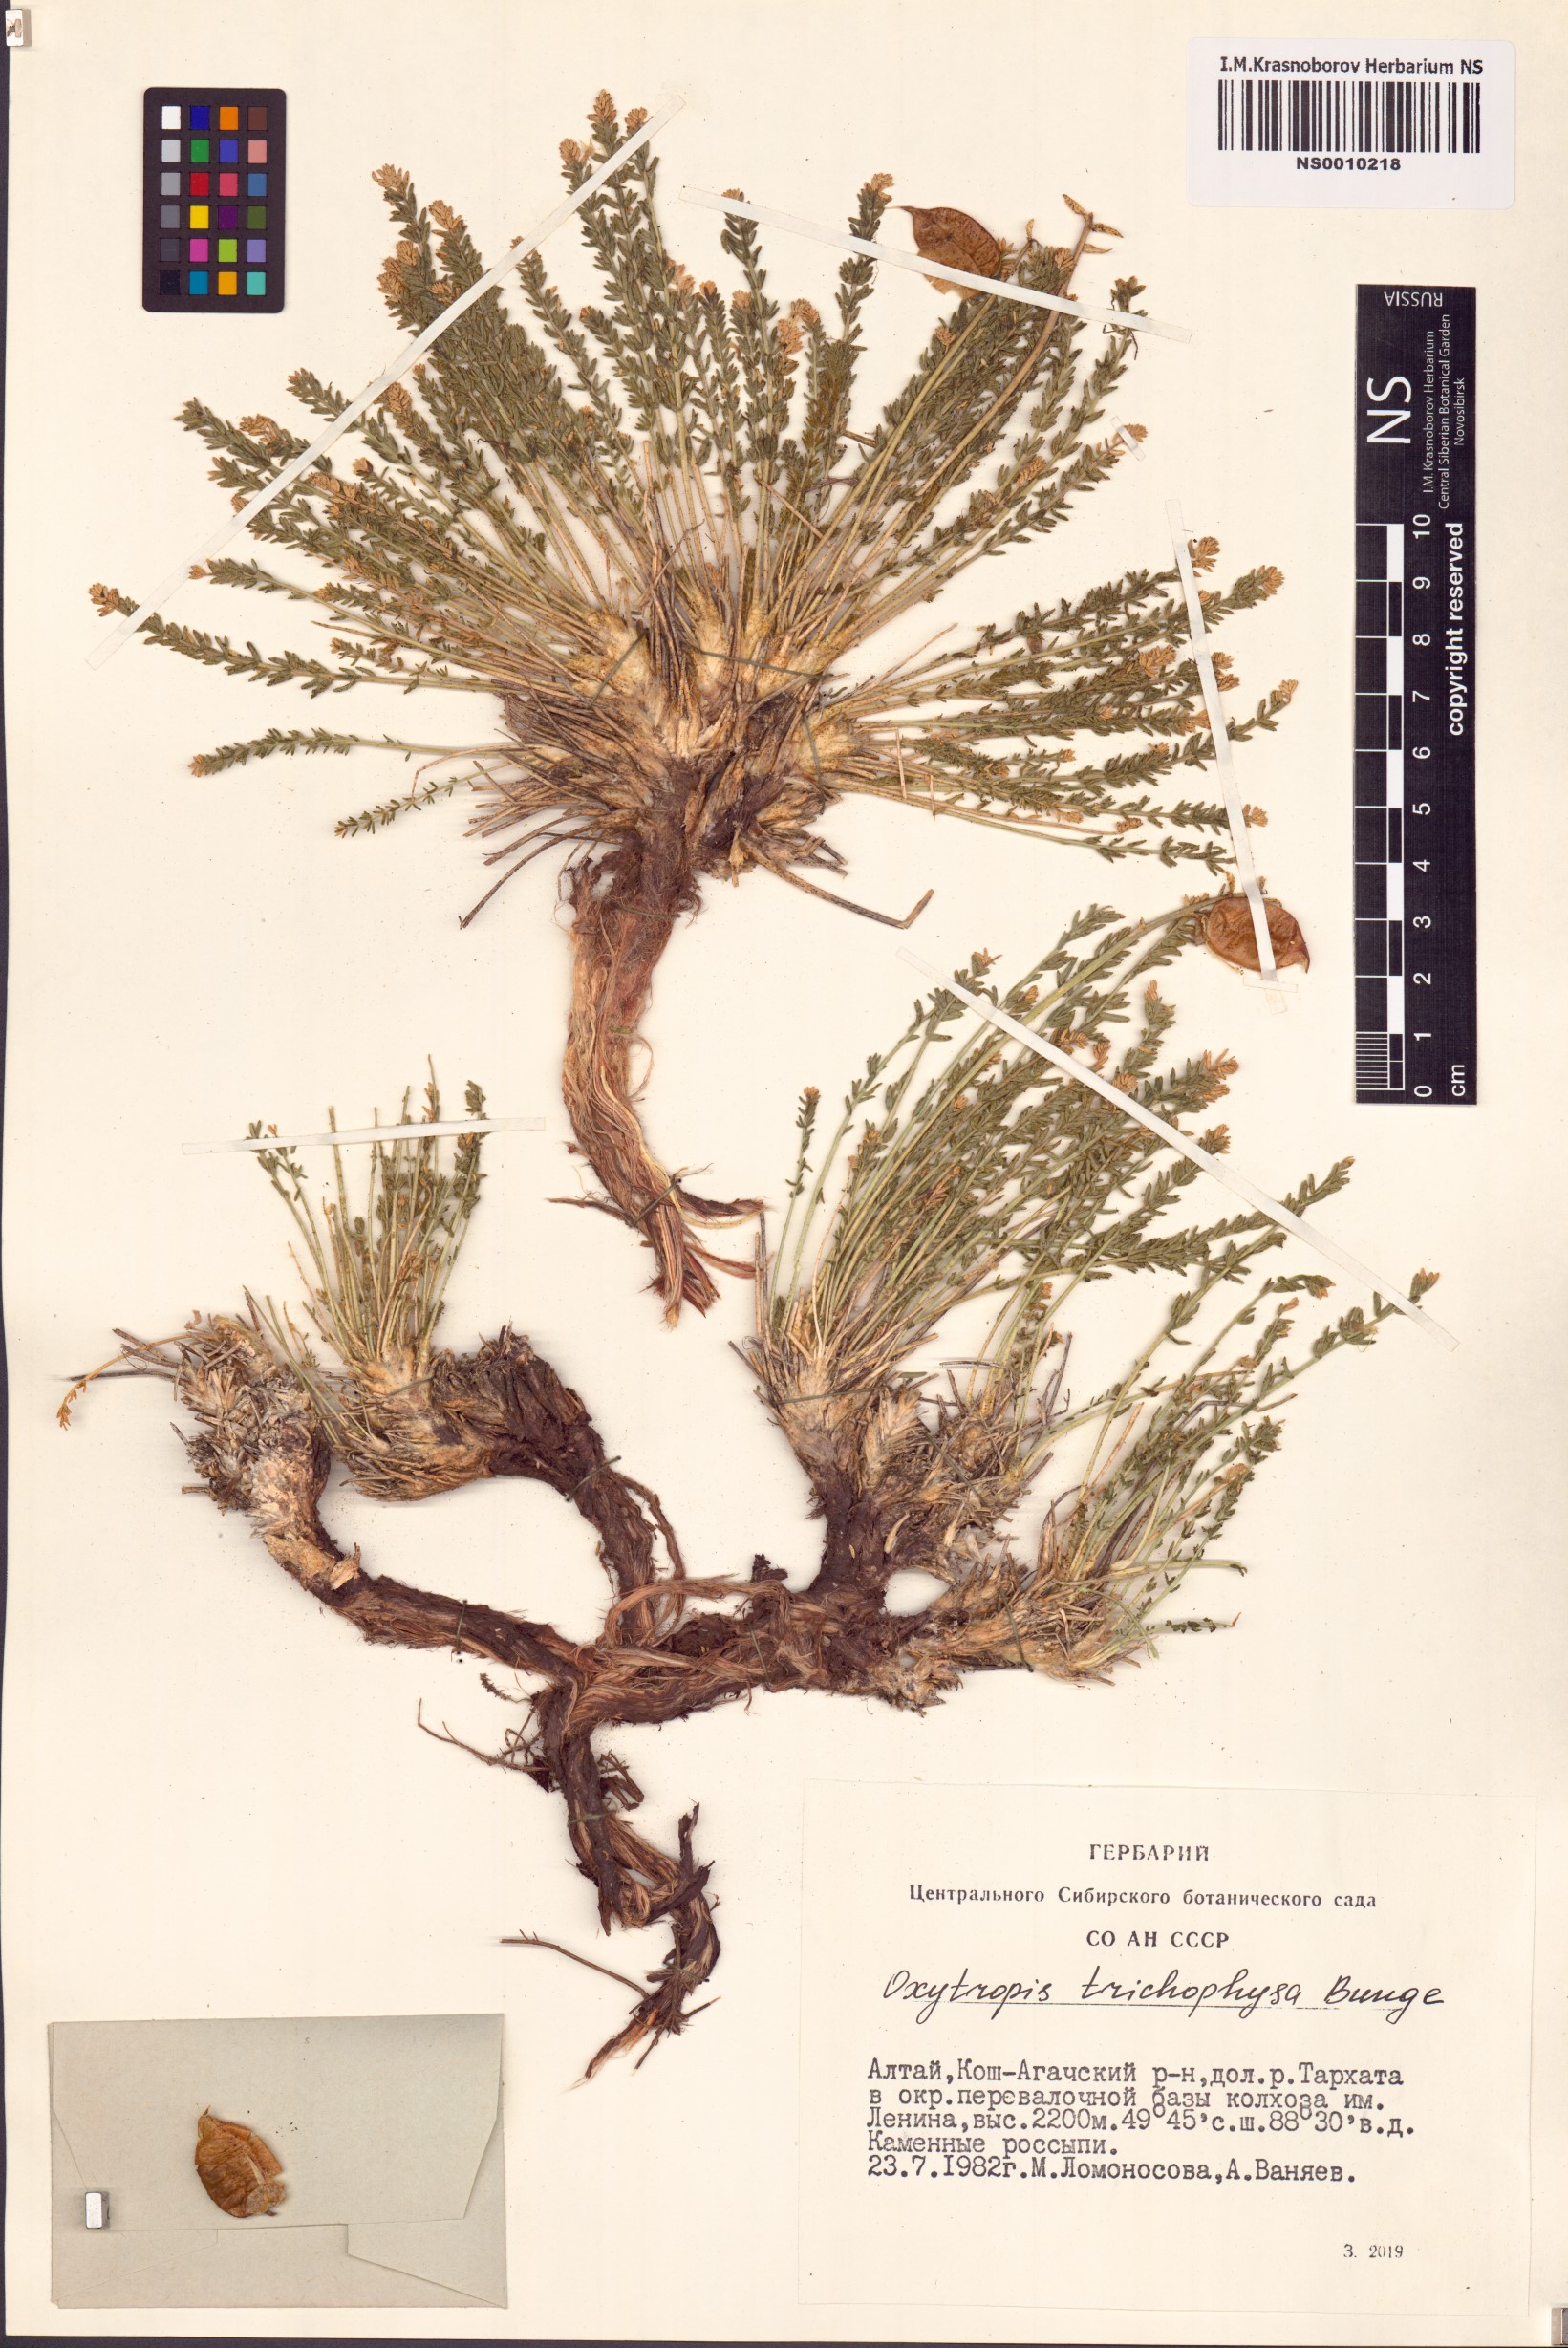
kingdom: Plantae
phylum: Tracheophyta
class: Magnoliopsida
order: Fabales
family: Fabaceae
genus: Oxytropis
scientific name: Oxytropis trichophysa
